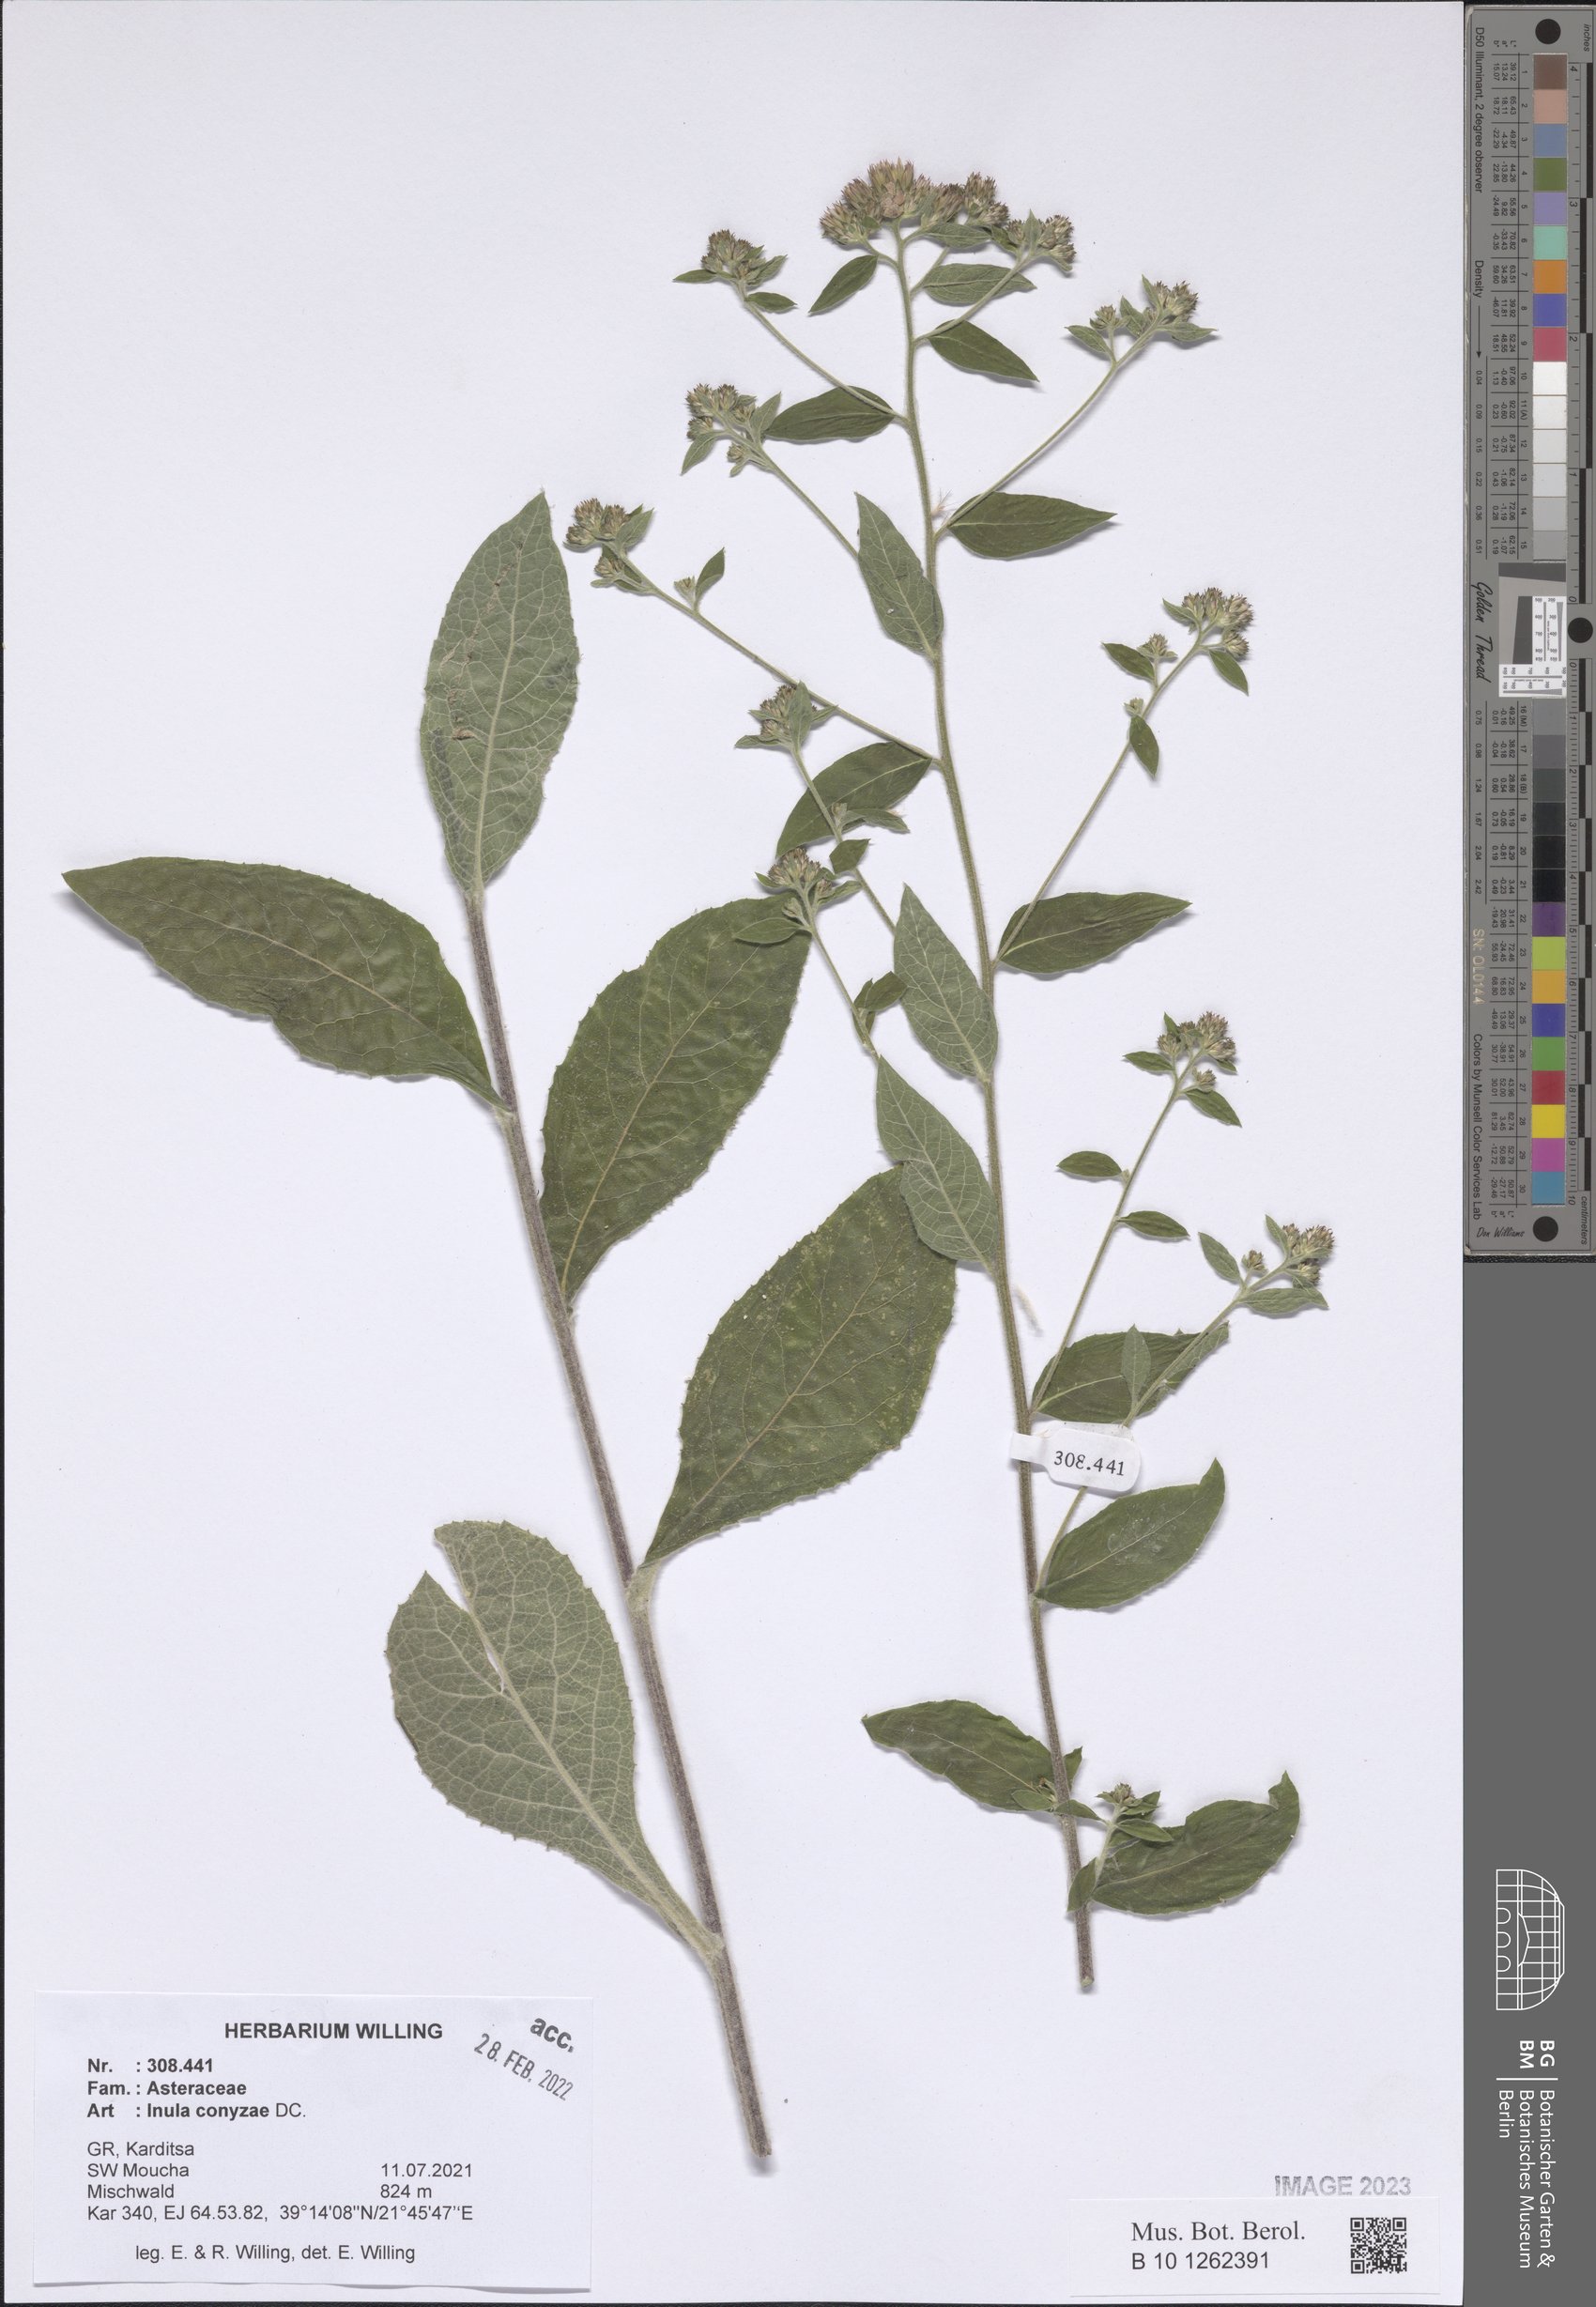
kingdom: Plantae
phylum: Tracheophyta
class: Magnoliopsida
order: Asterales
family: Asteraceae
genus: Pentanema
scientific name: Pentanema squarrosum
